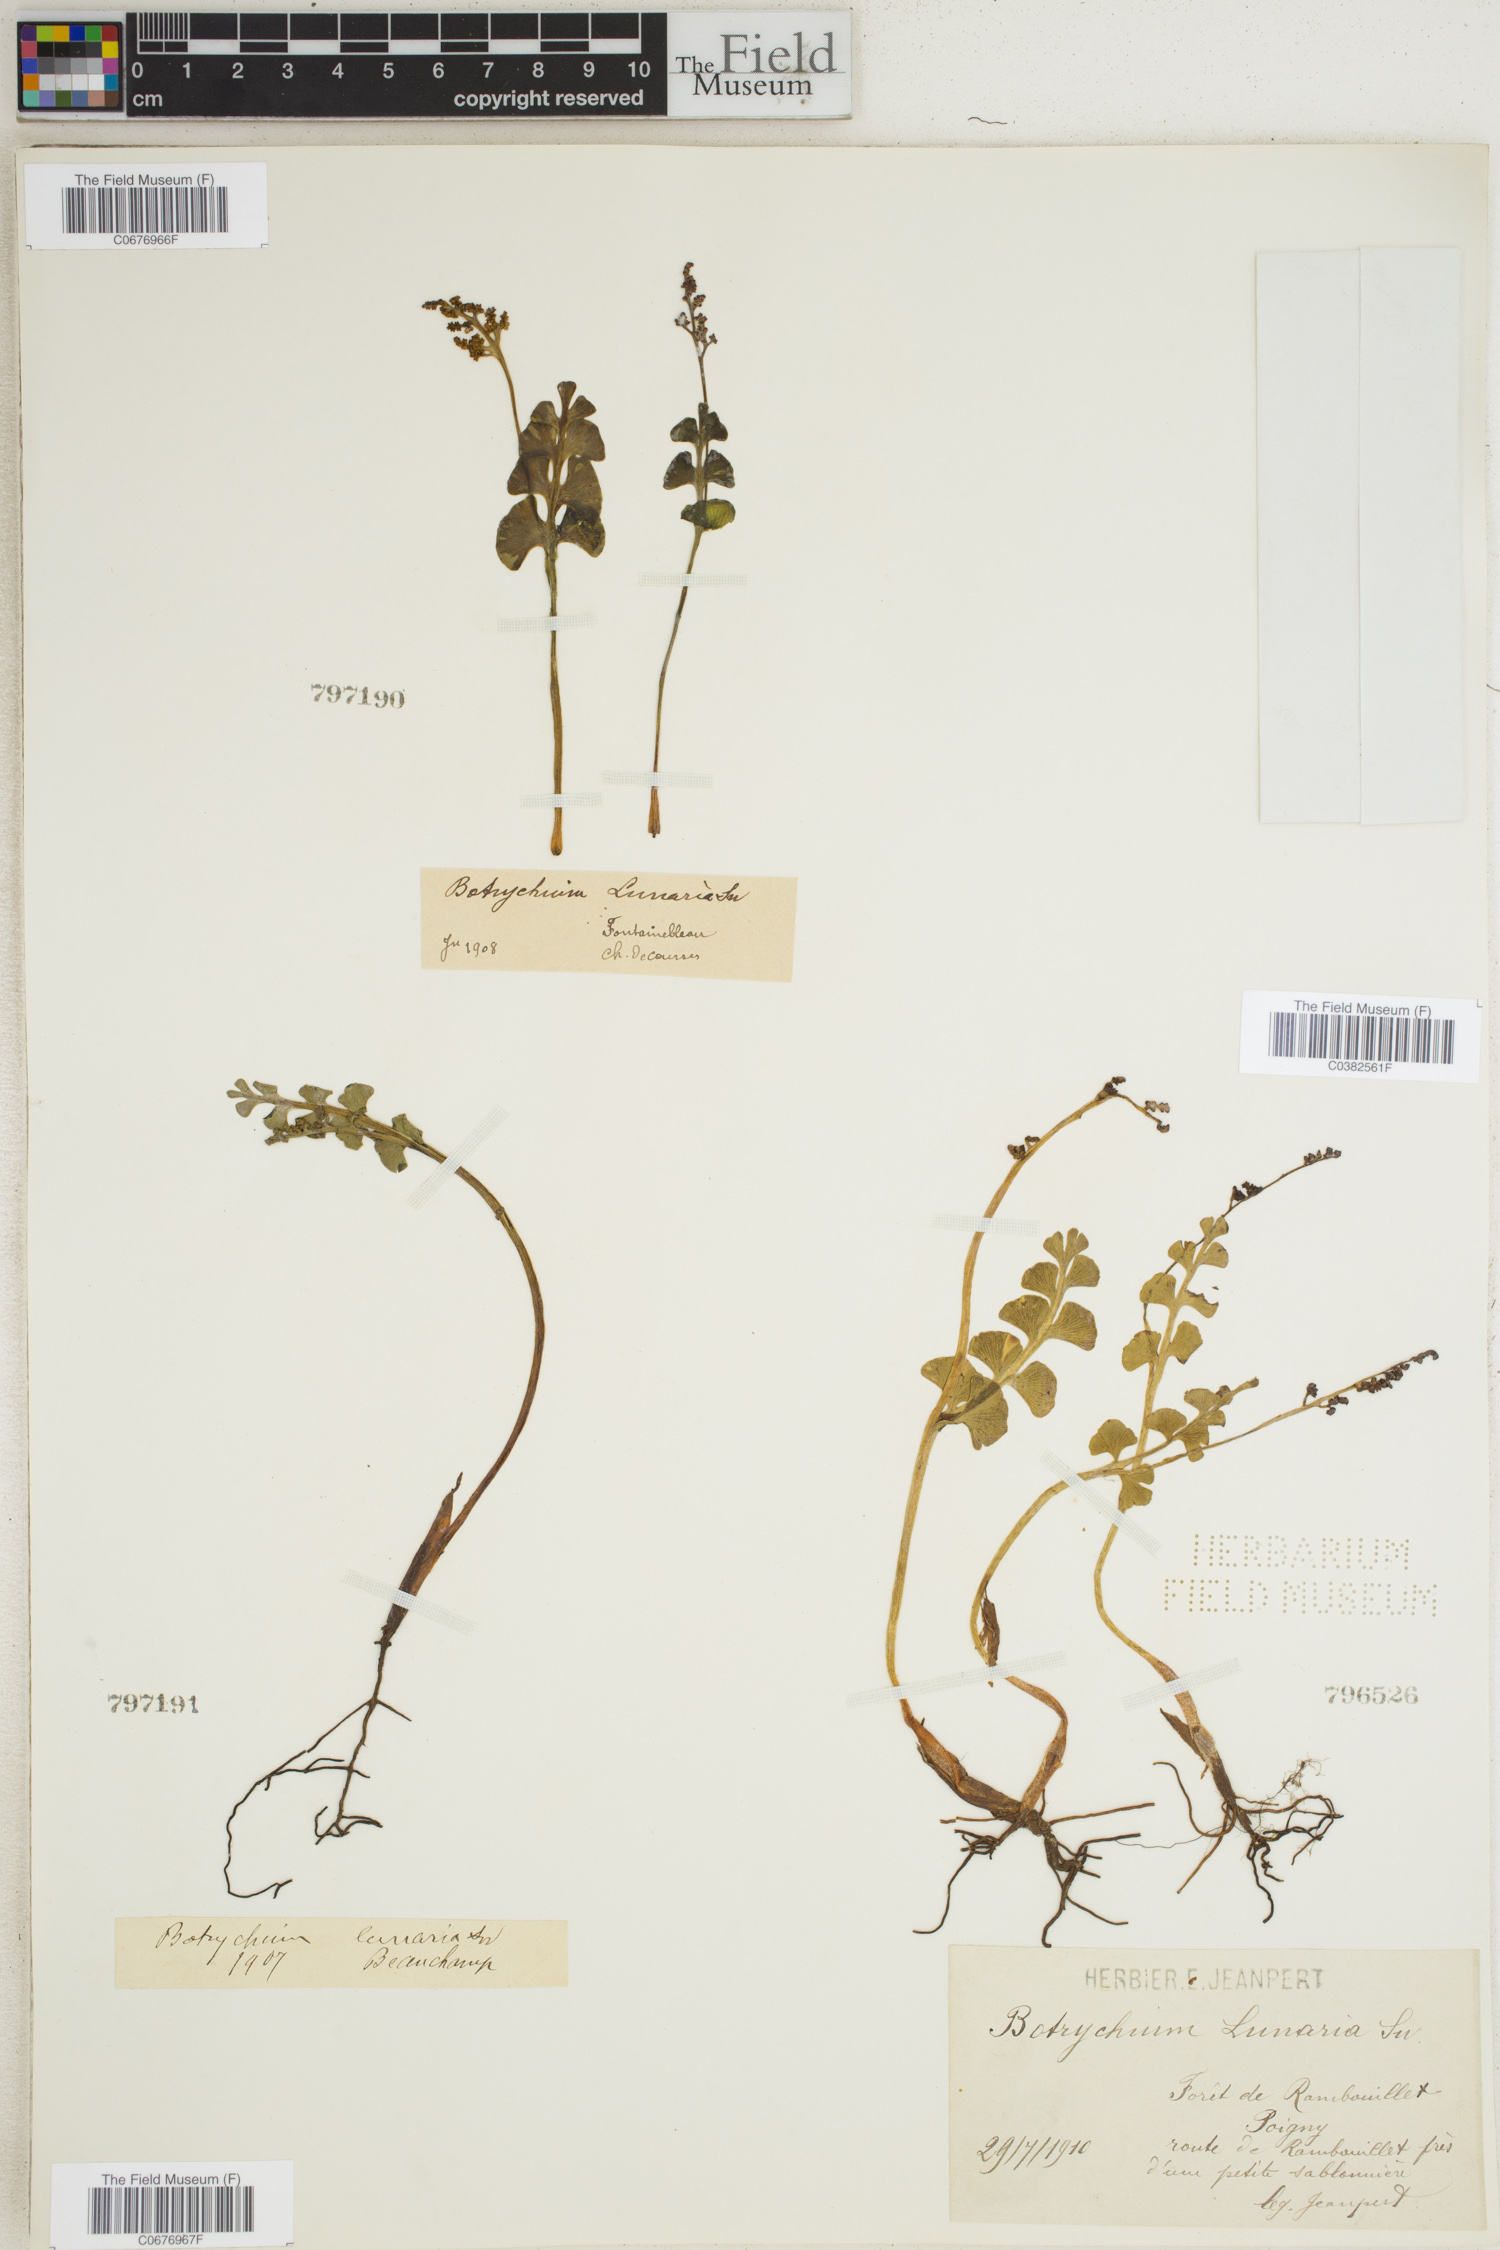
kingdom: Plantae
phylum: Tracheophyta
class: Polypodiopsida
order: Ophioglossales
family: Ophioglossaceae
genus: Botrychium
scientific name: Botrychium lunaria
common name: Moonwort
